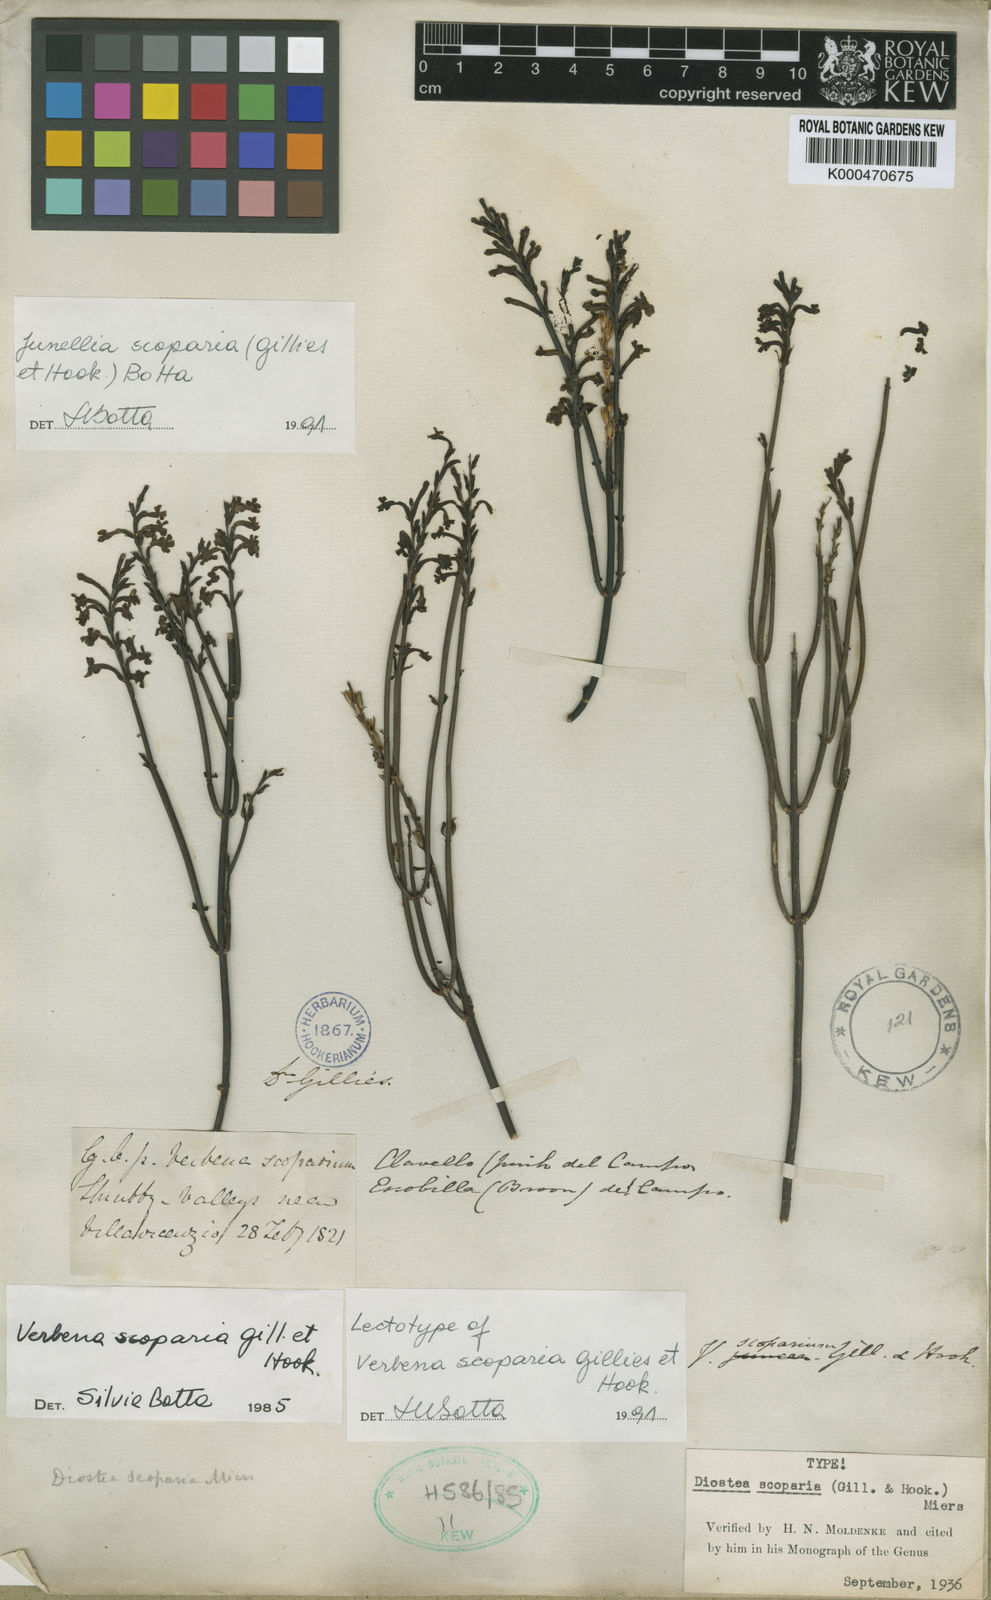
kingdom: Plantae
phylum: Tracheophyta
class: Magnoliopsida
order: Lamiales
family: Verbenaceae
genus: Mulguraea
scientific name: Mulguraea scoparia
